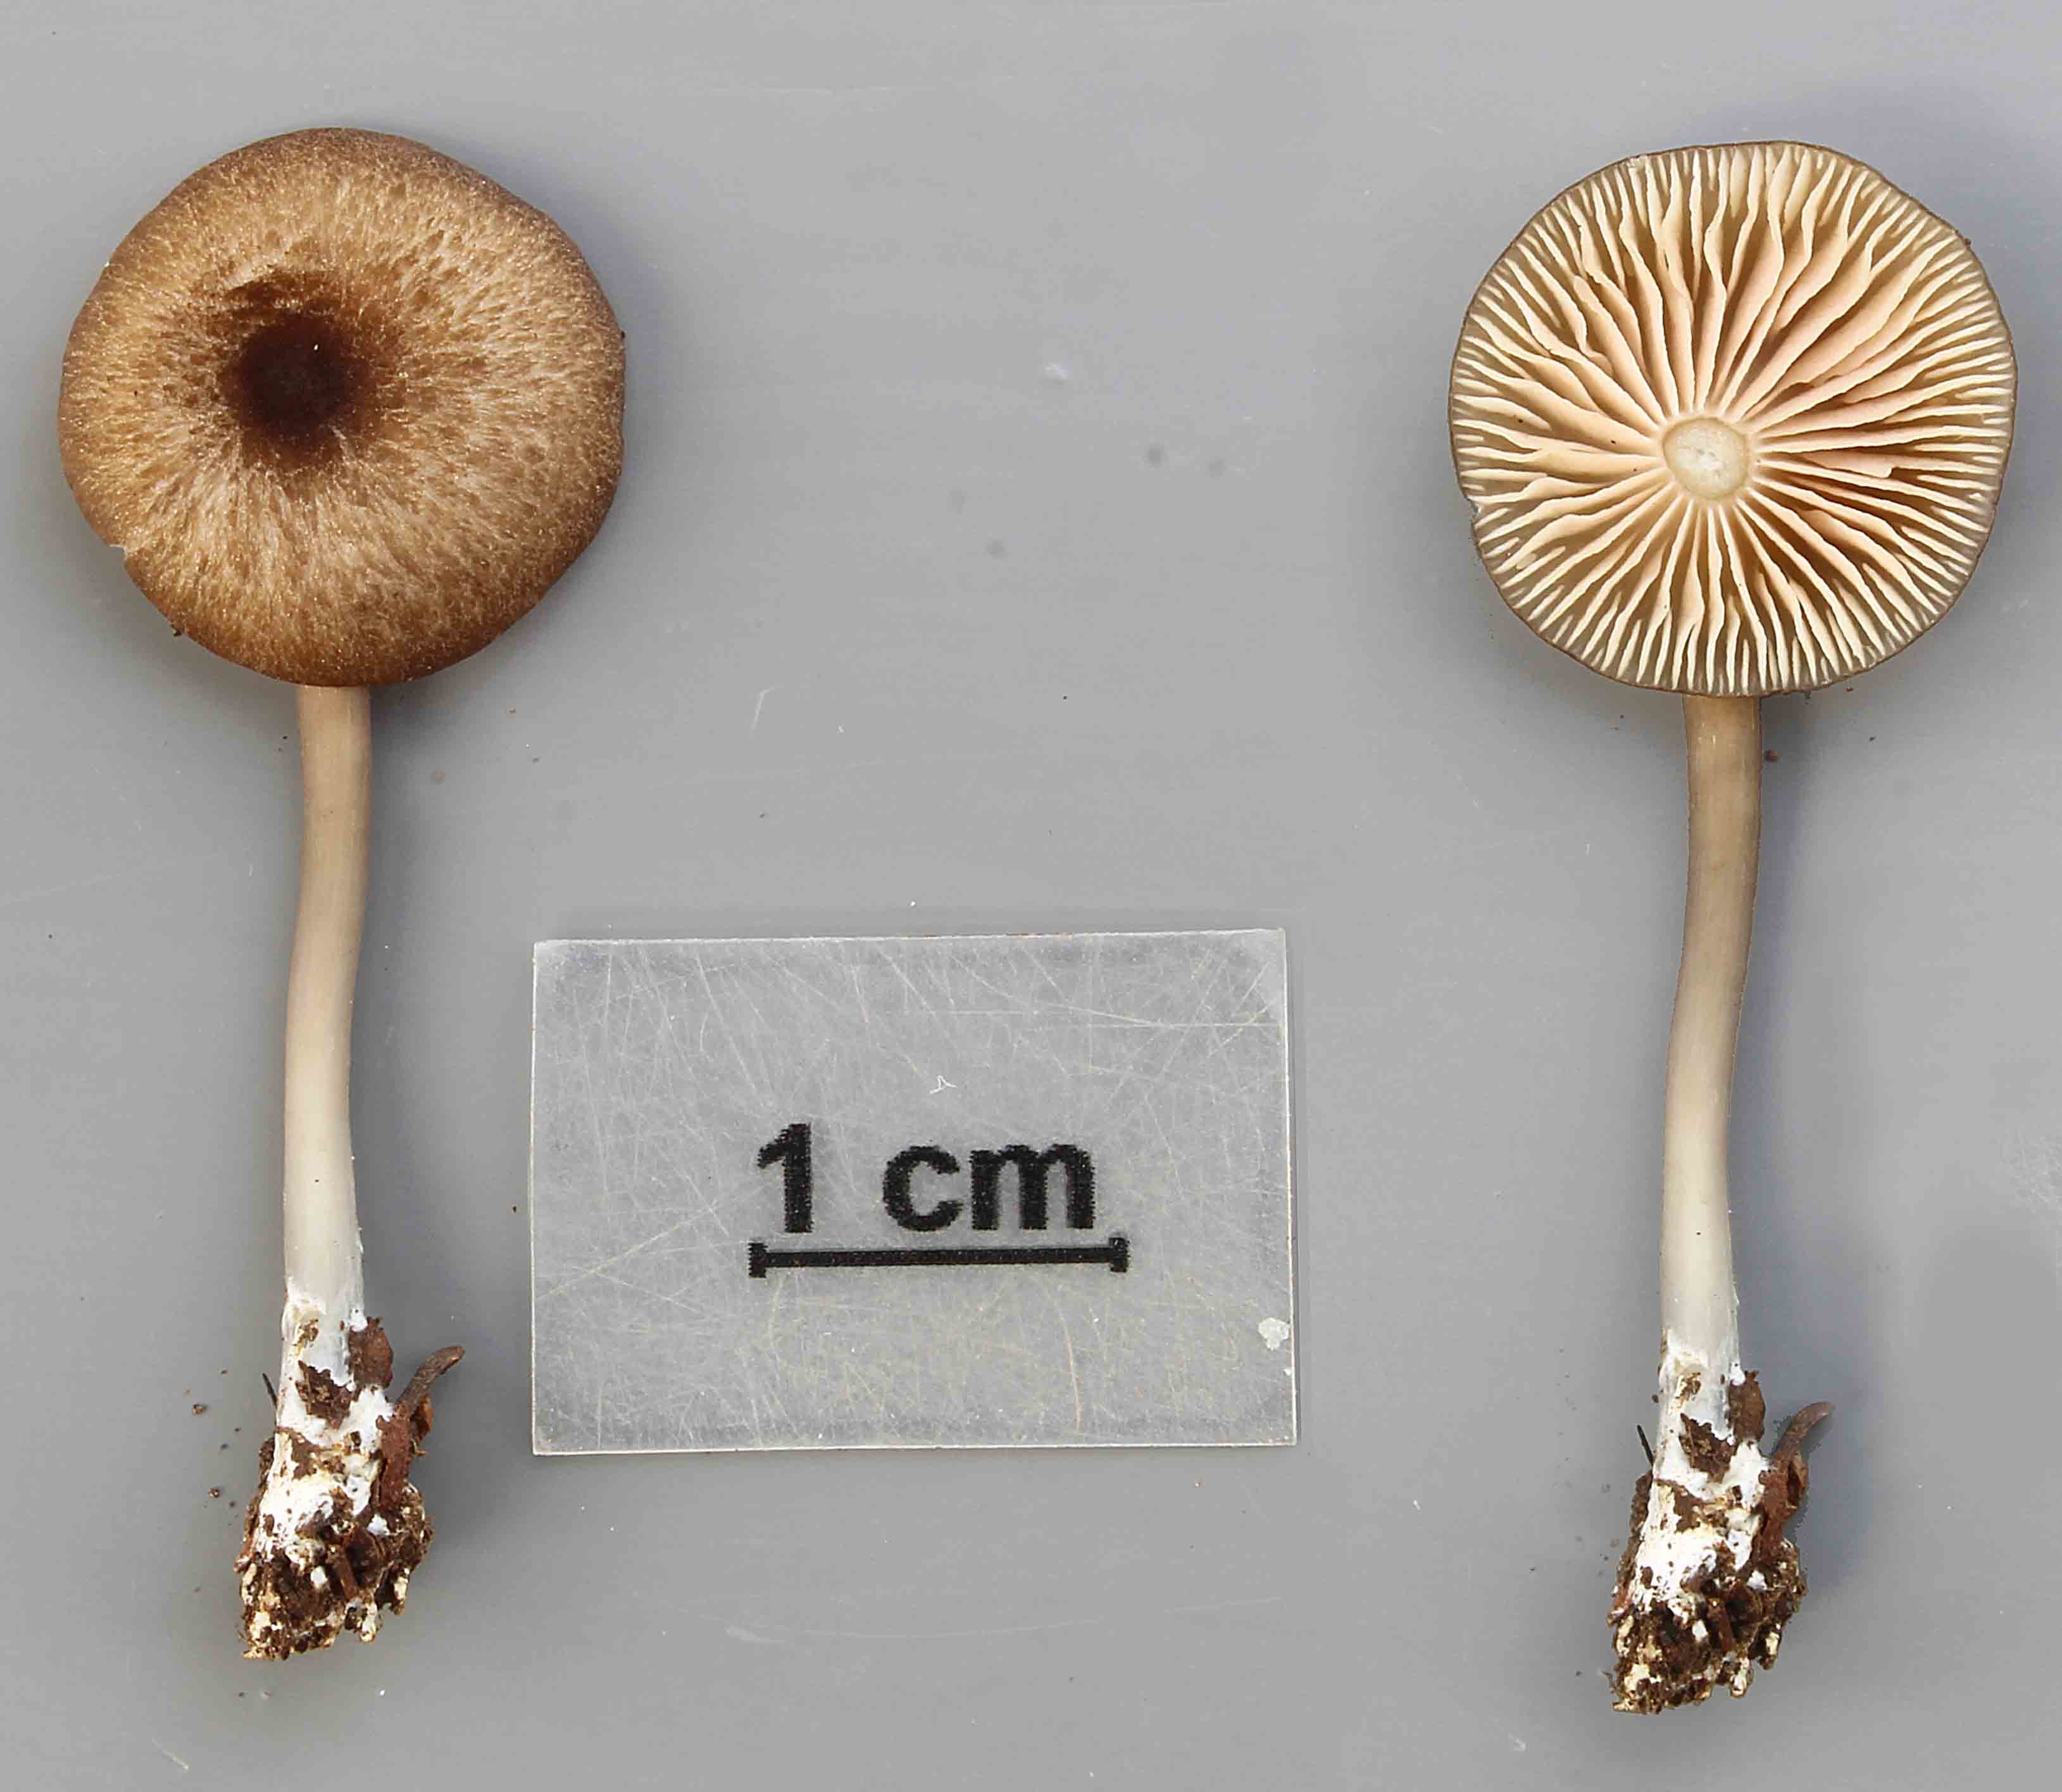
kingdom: Fungi
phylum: Basidiomycota
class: Agaricomycetes
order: Agaricales
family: Entolomataceae
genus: Entoloma
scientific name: Entoloma caeruleum
